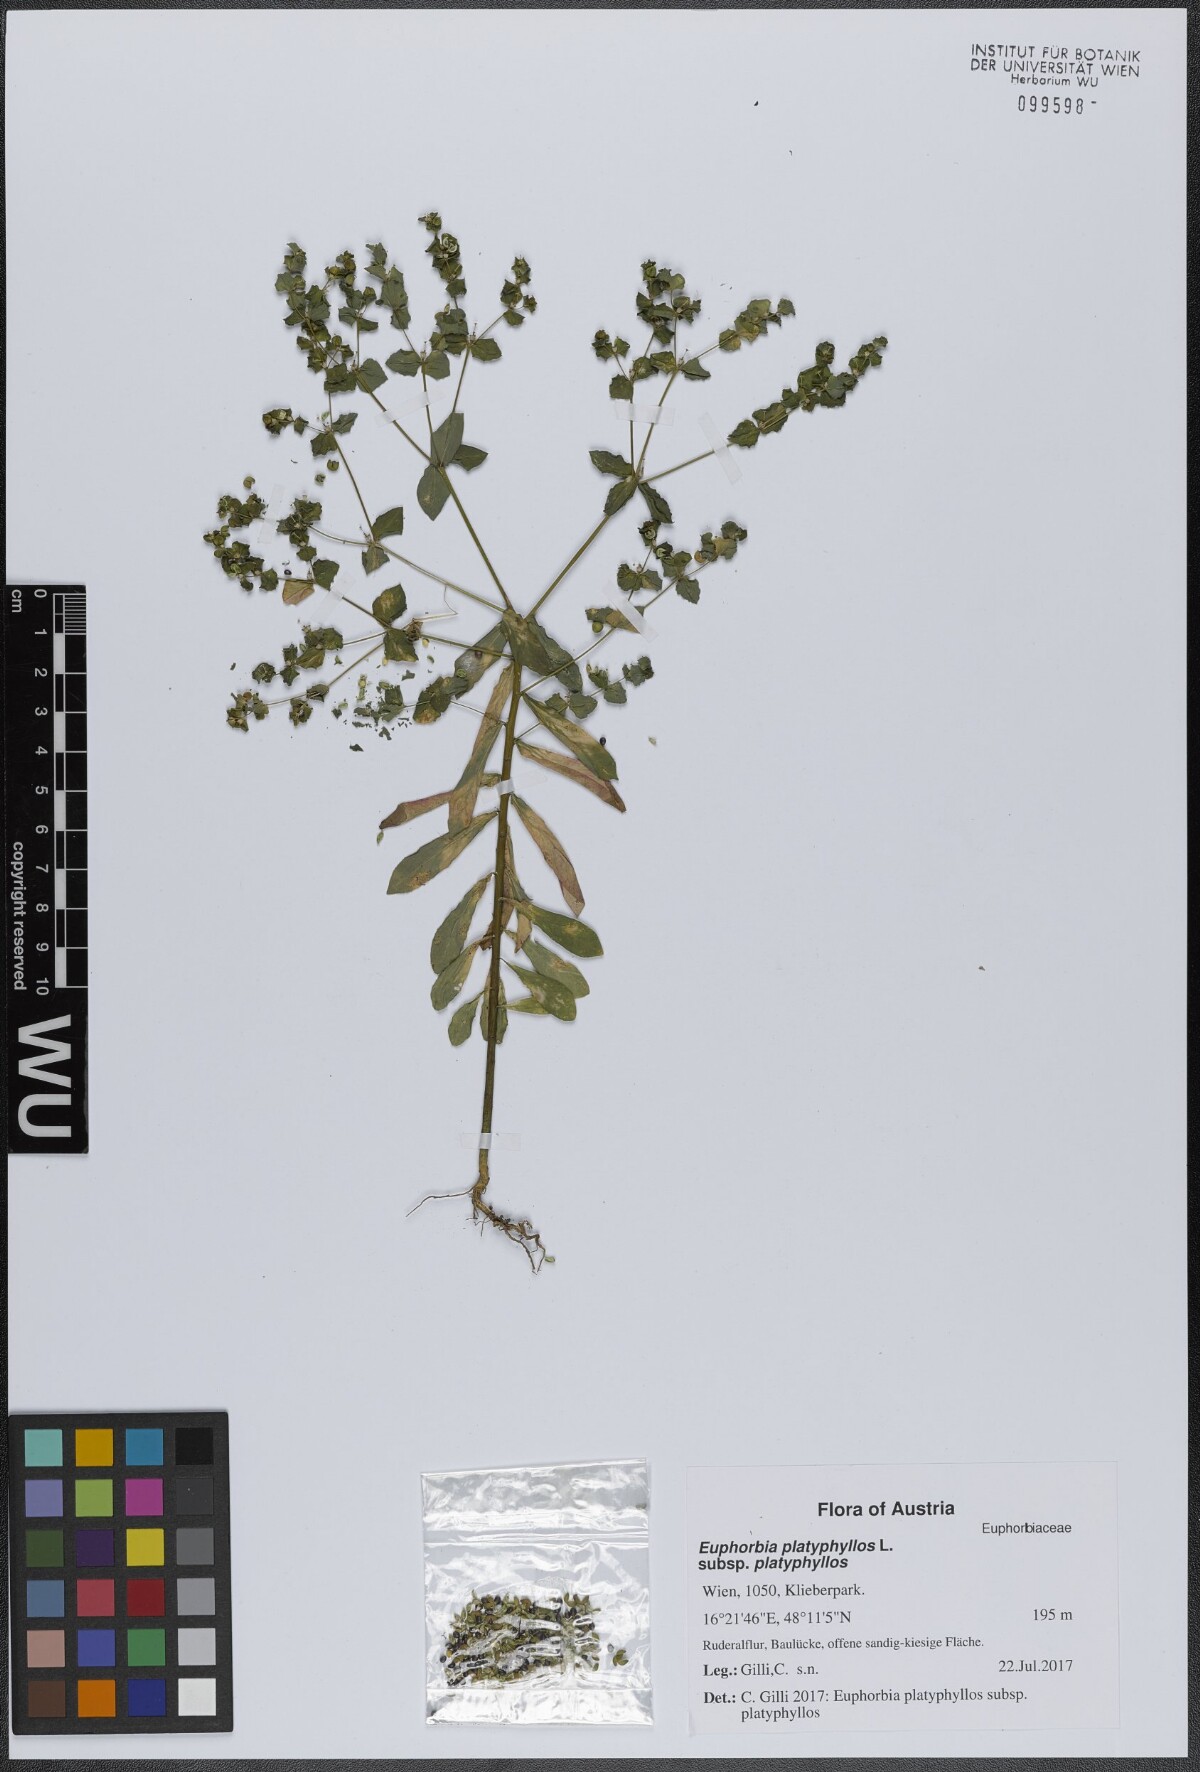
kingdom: Plantae
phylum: Tracheophyta
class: Magnoliopsida
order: Malpighiales
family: Euphorbiaceae
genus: Euphorbia
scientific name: Euphorbia platyphyllos
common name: Broad-leaved spurge
